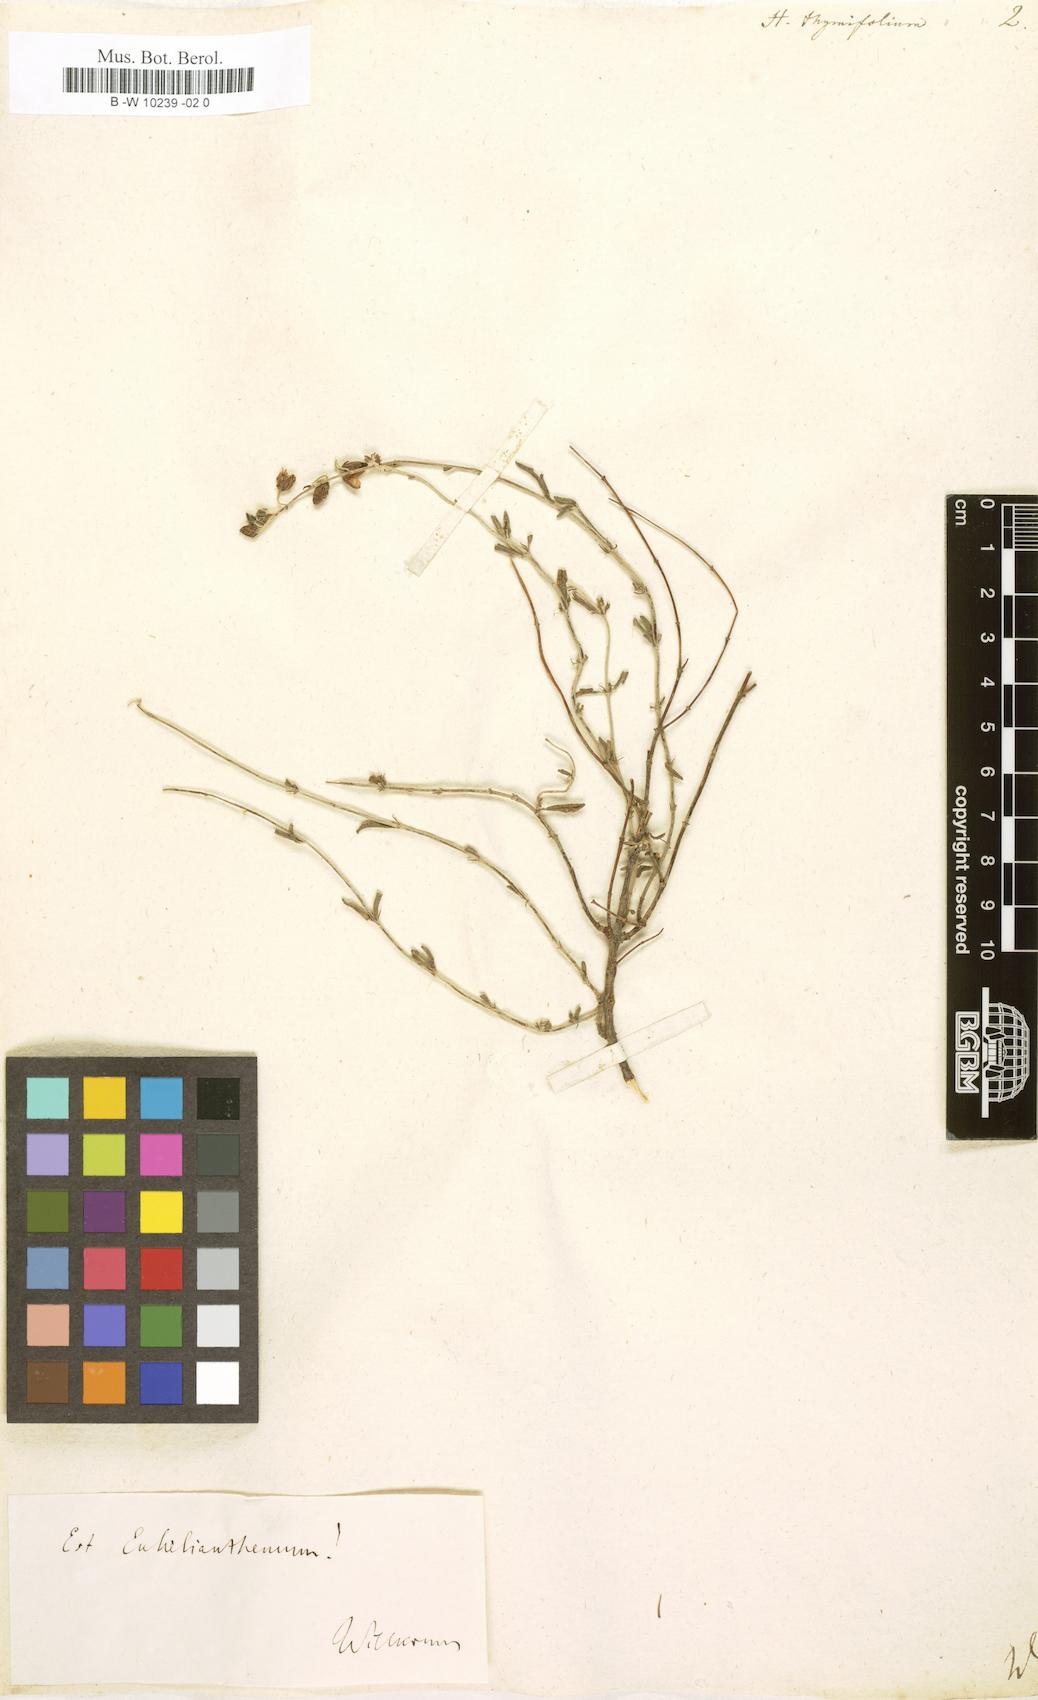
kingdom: Plantae
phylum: Tracheophyta
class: Magnoliopsida
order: Malvales
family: Cistaceae
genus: Fumana
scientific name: Fumana thymifolia
